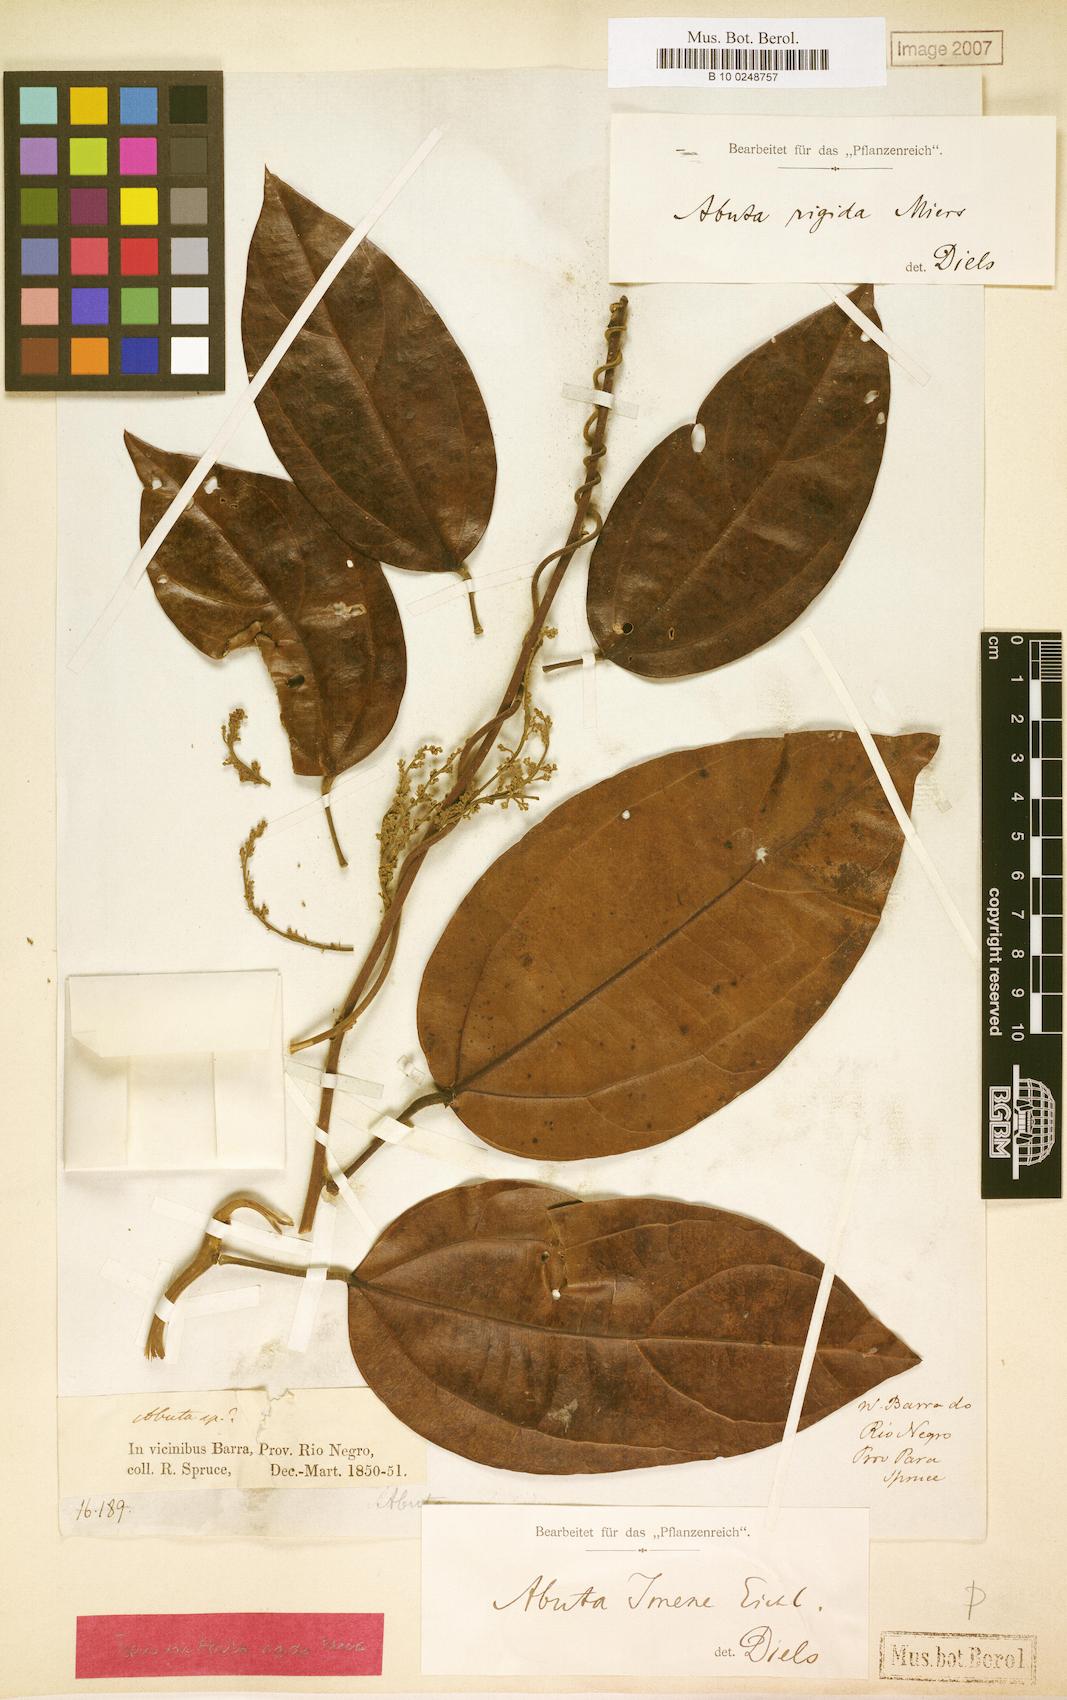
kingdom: Plantae
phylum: Tracheophyta
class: Magnoliopsida
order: Ranunculales
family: Menispermaceae
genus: Abuta
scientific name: Abuta imene
